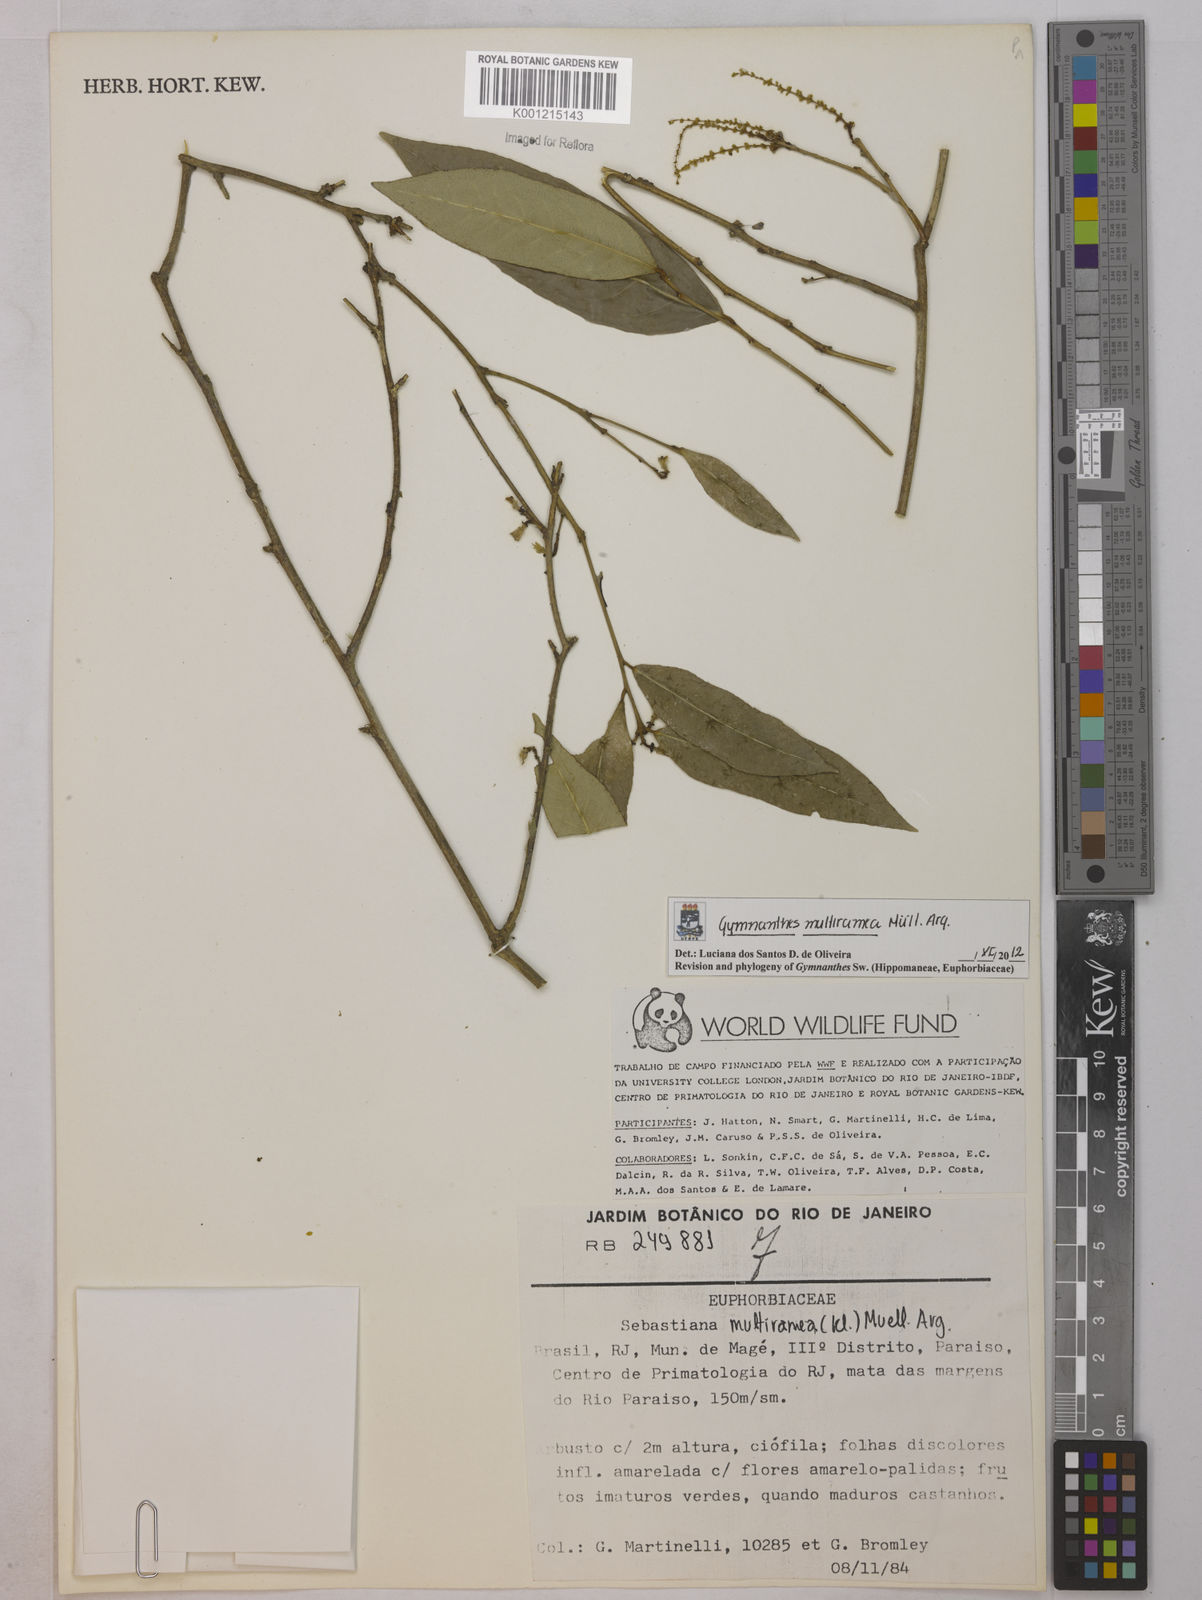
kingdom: Plantae
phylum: Tracheophyta
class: Magnoliopsida
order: Malpighiales
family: Euphorbiaceae
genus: Gymnanthes
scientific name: Gymnanthes
